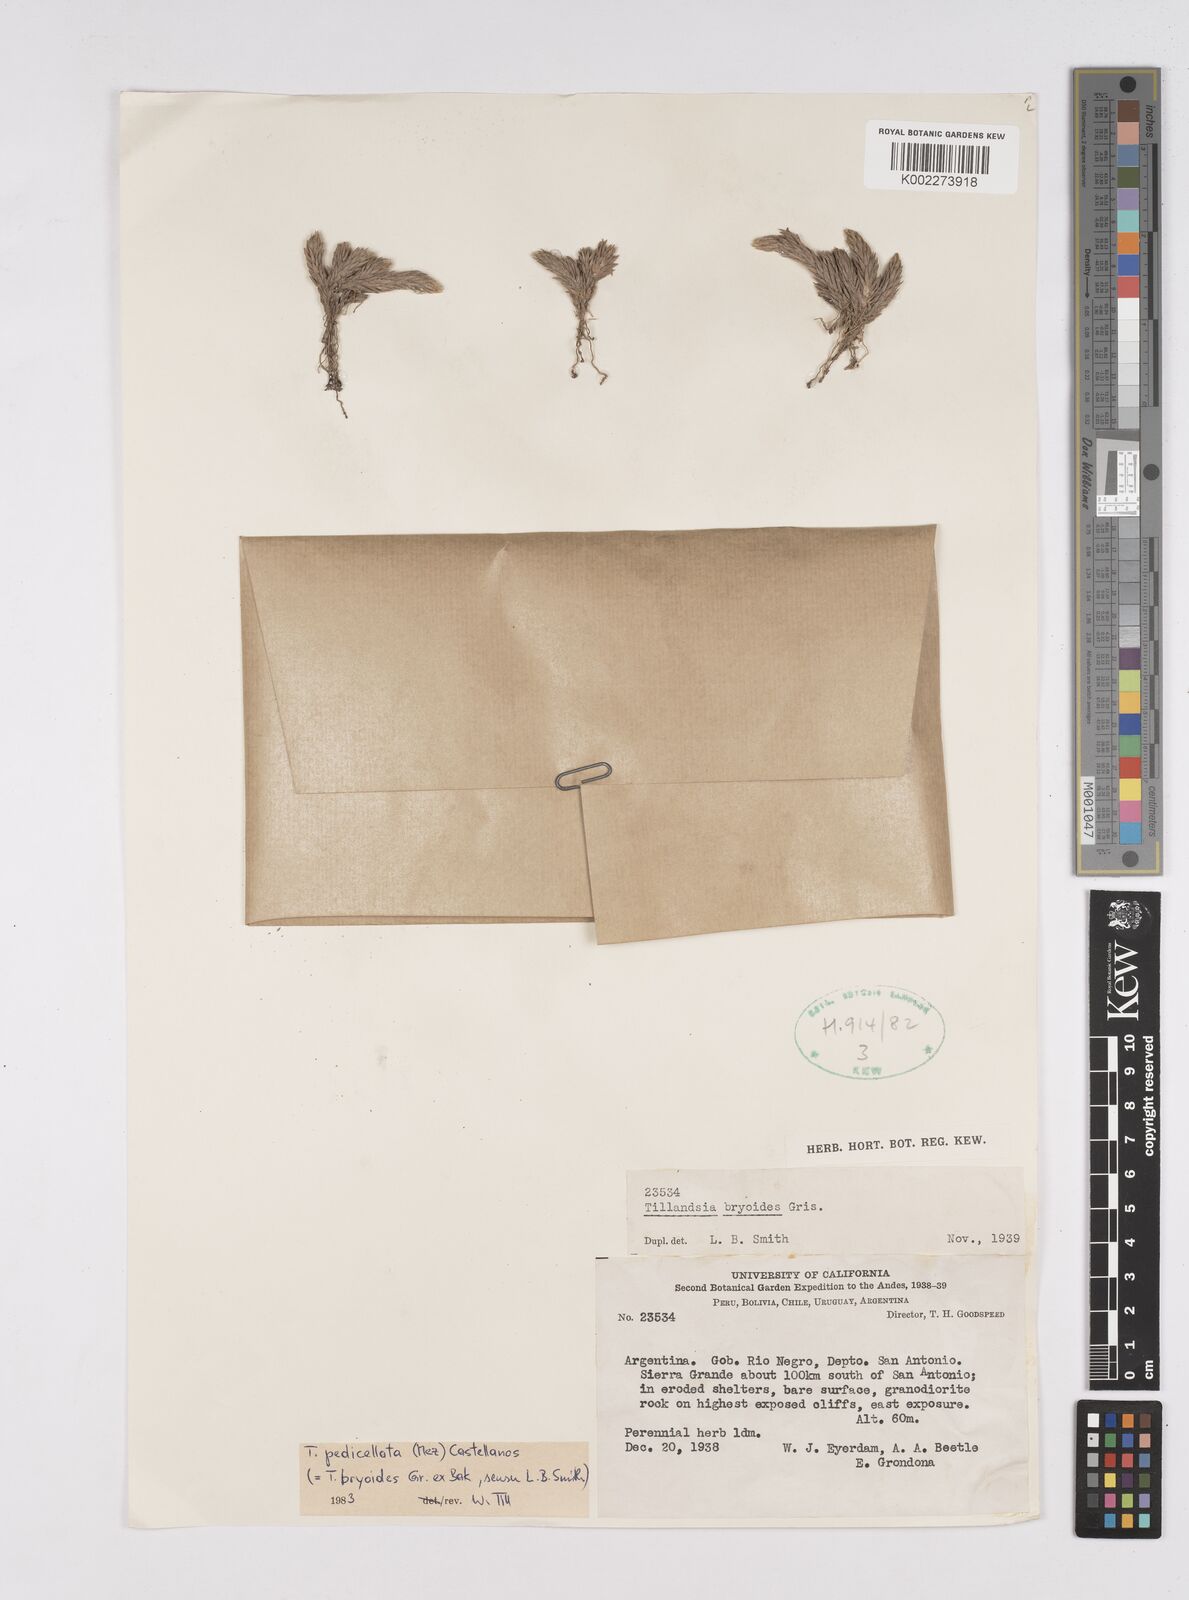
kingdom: Plantae
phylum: Tracheophyta
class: Liliopsida
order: Poales
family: Bromeliaceae
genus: Tillandsia
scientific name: Tillandsia tricholepis
